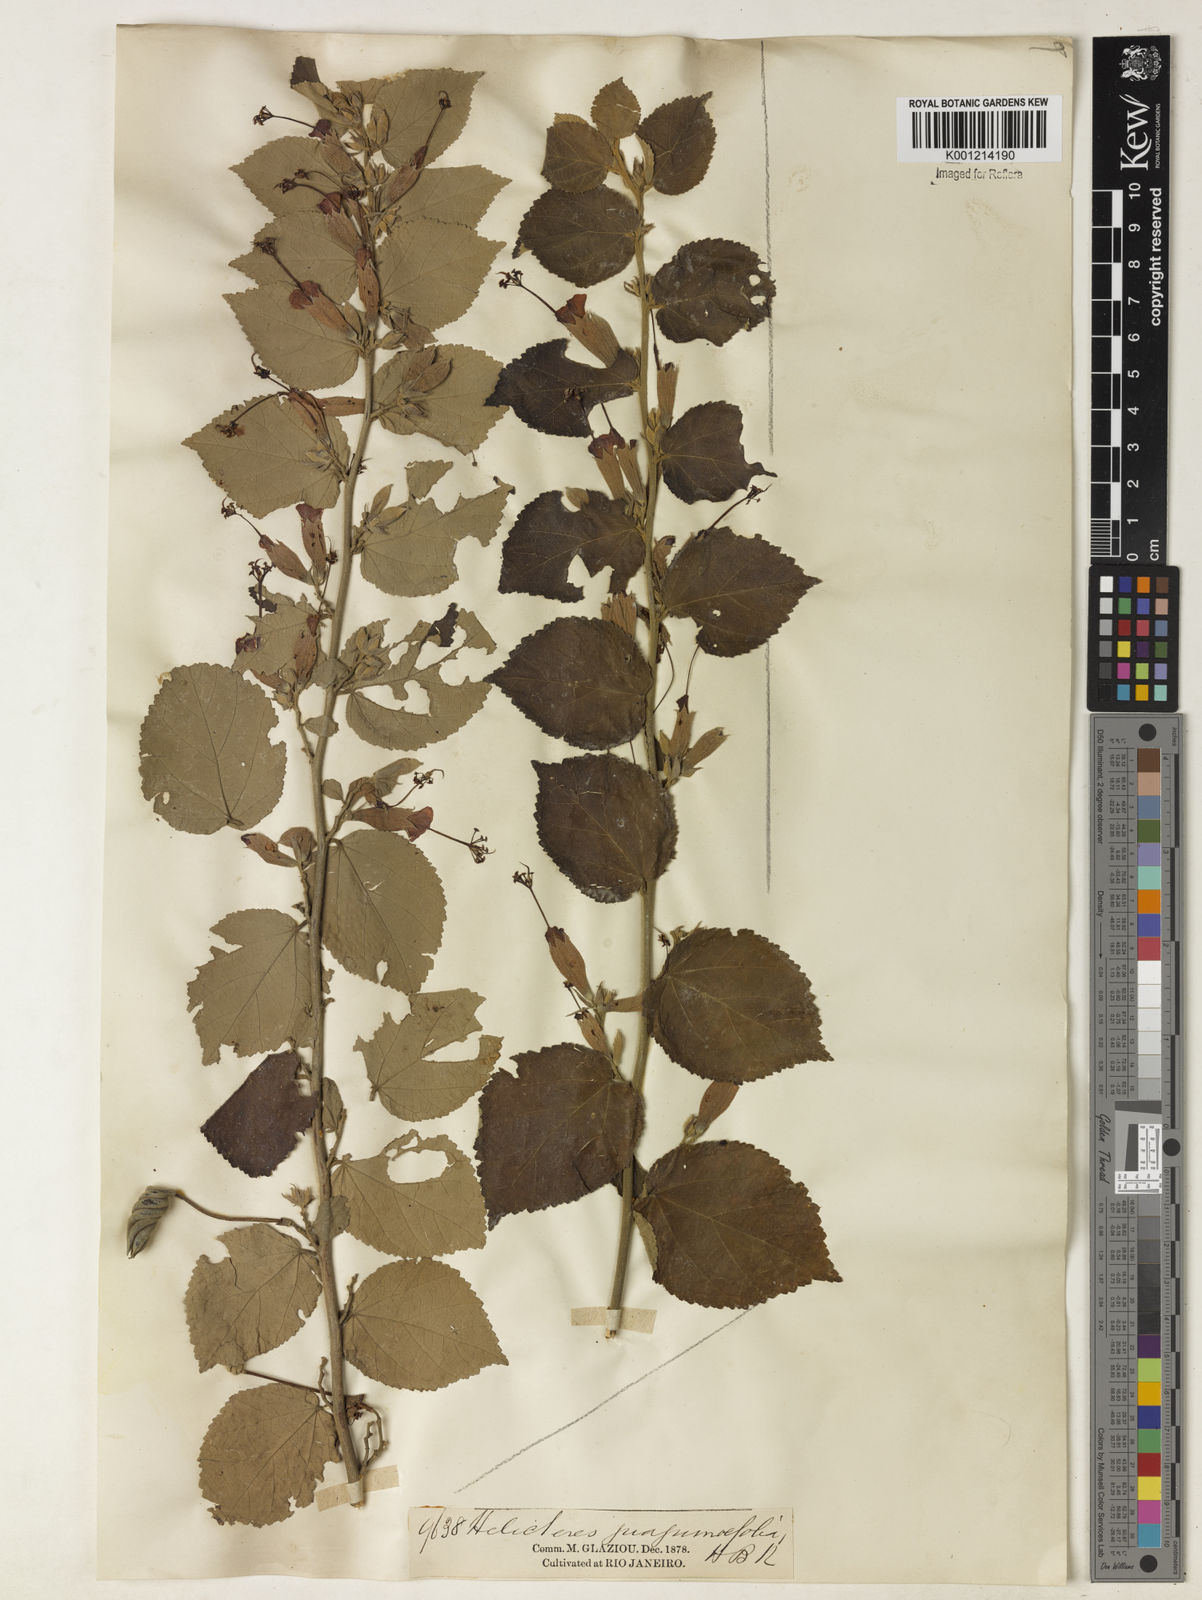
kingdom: Plantae
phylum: Tracheophyta
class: Magnoliopsida
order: Malvales
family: Malvaceae
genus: Helicteres
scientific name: Helicteres guazumifolia
